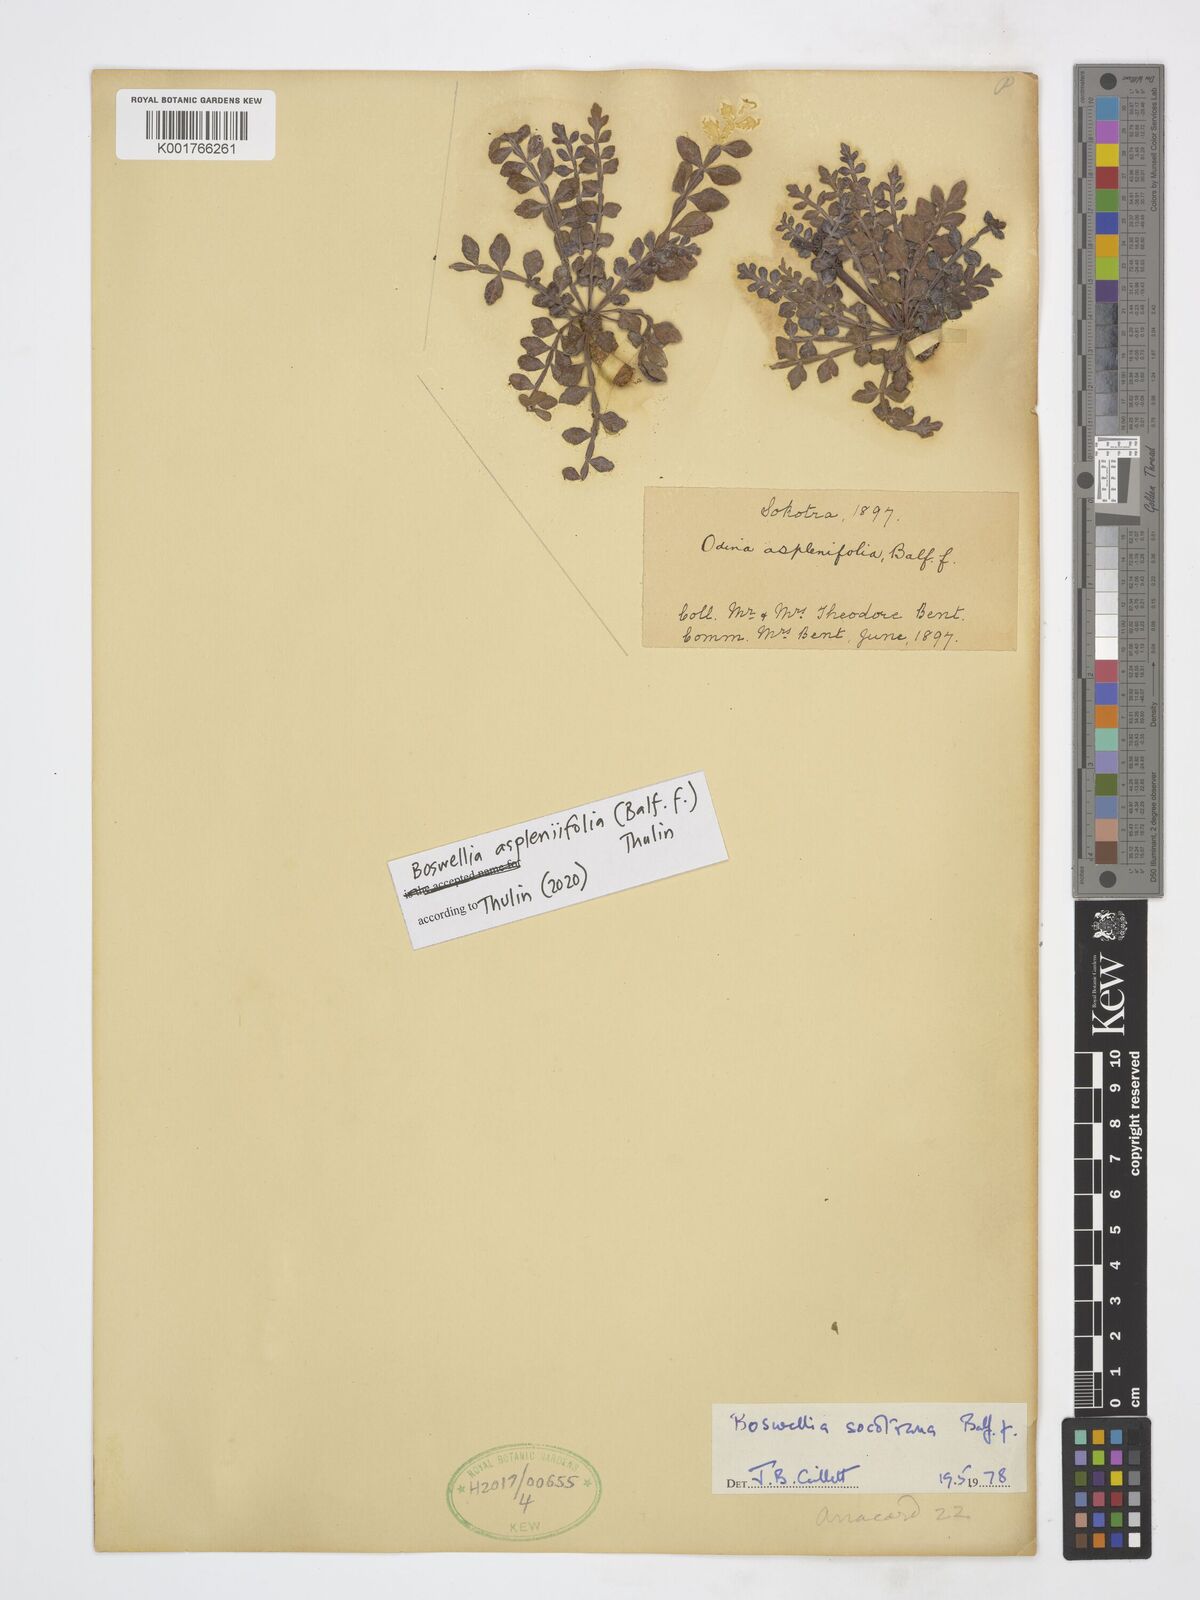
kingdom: Plantae
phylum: Tracheophyta
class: Magnoliopsida
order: Sapindales
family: Burseraceae
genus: Boswellia
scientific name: Boswellia
